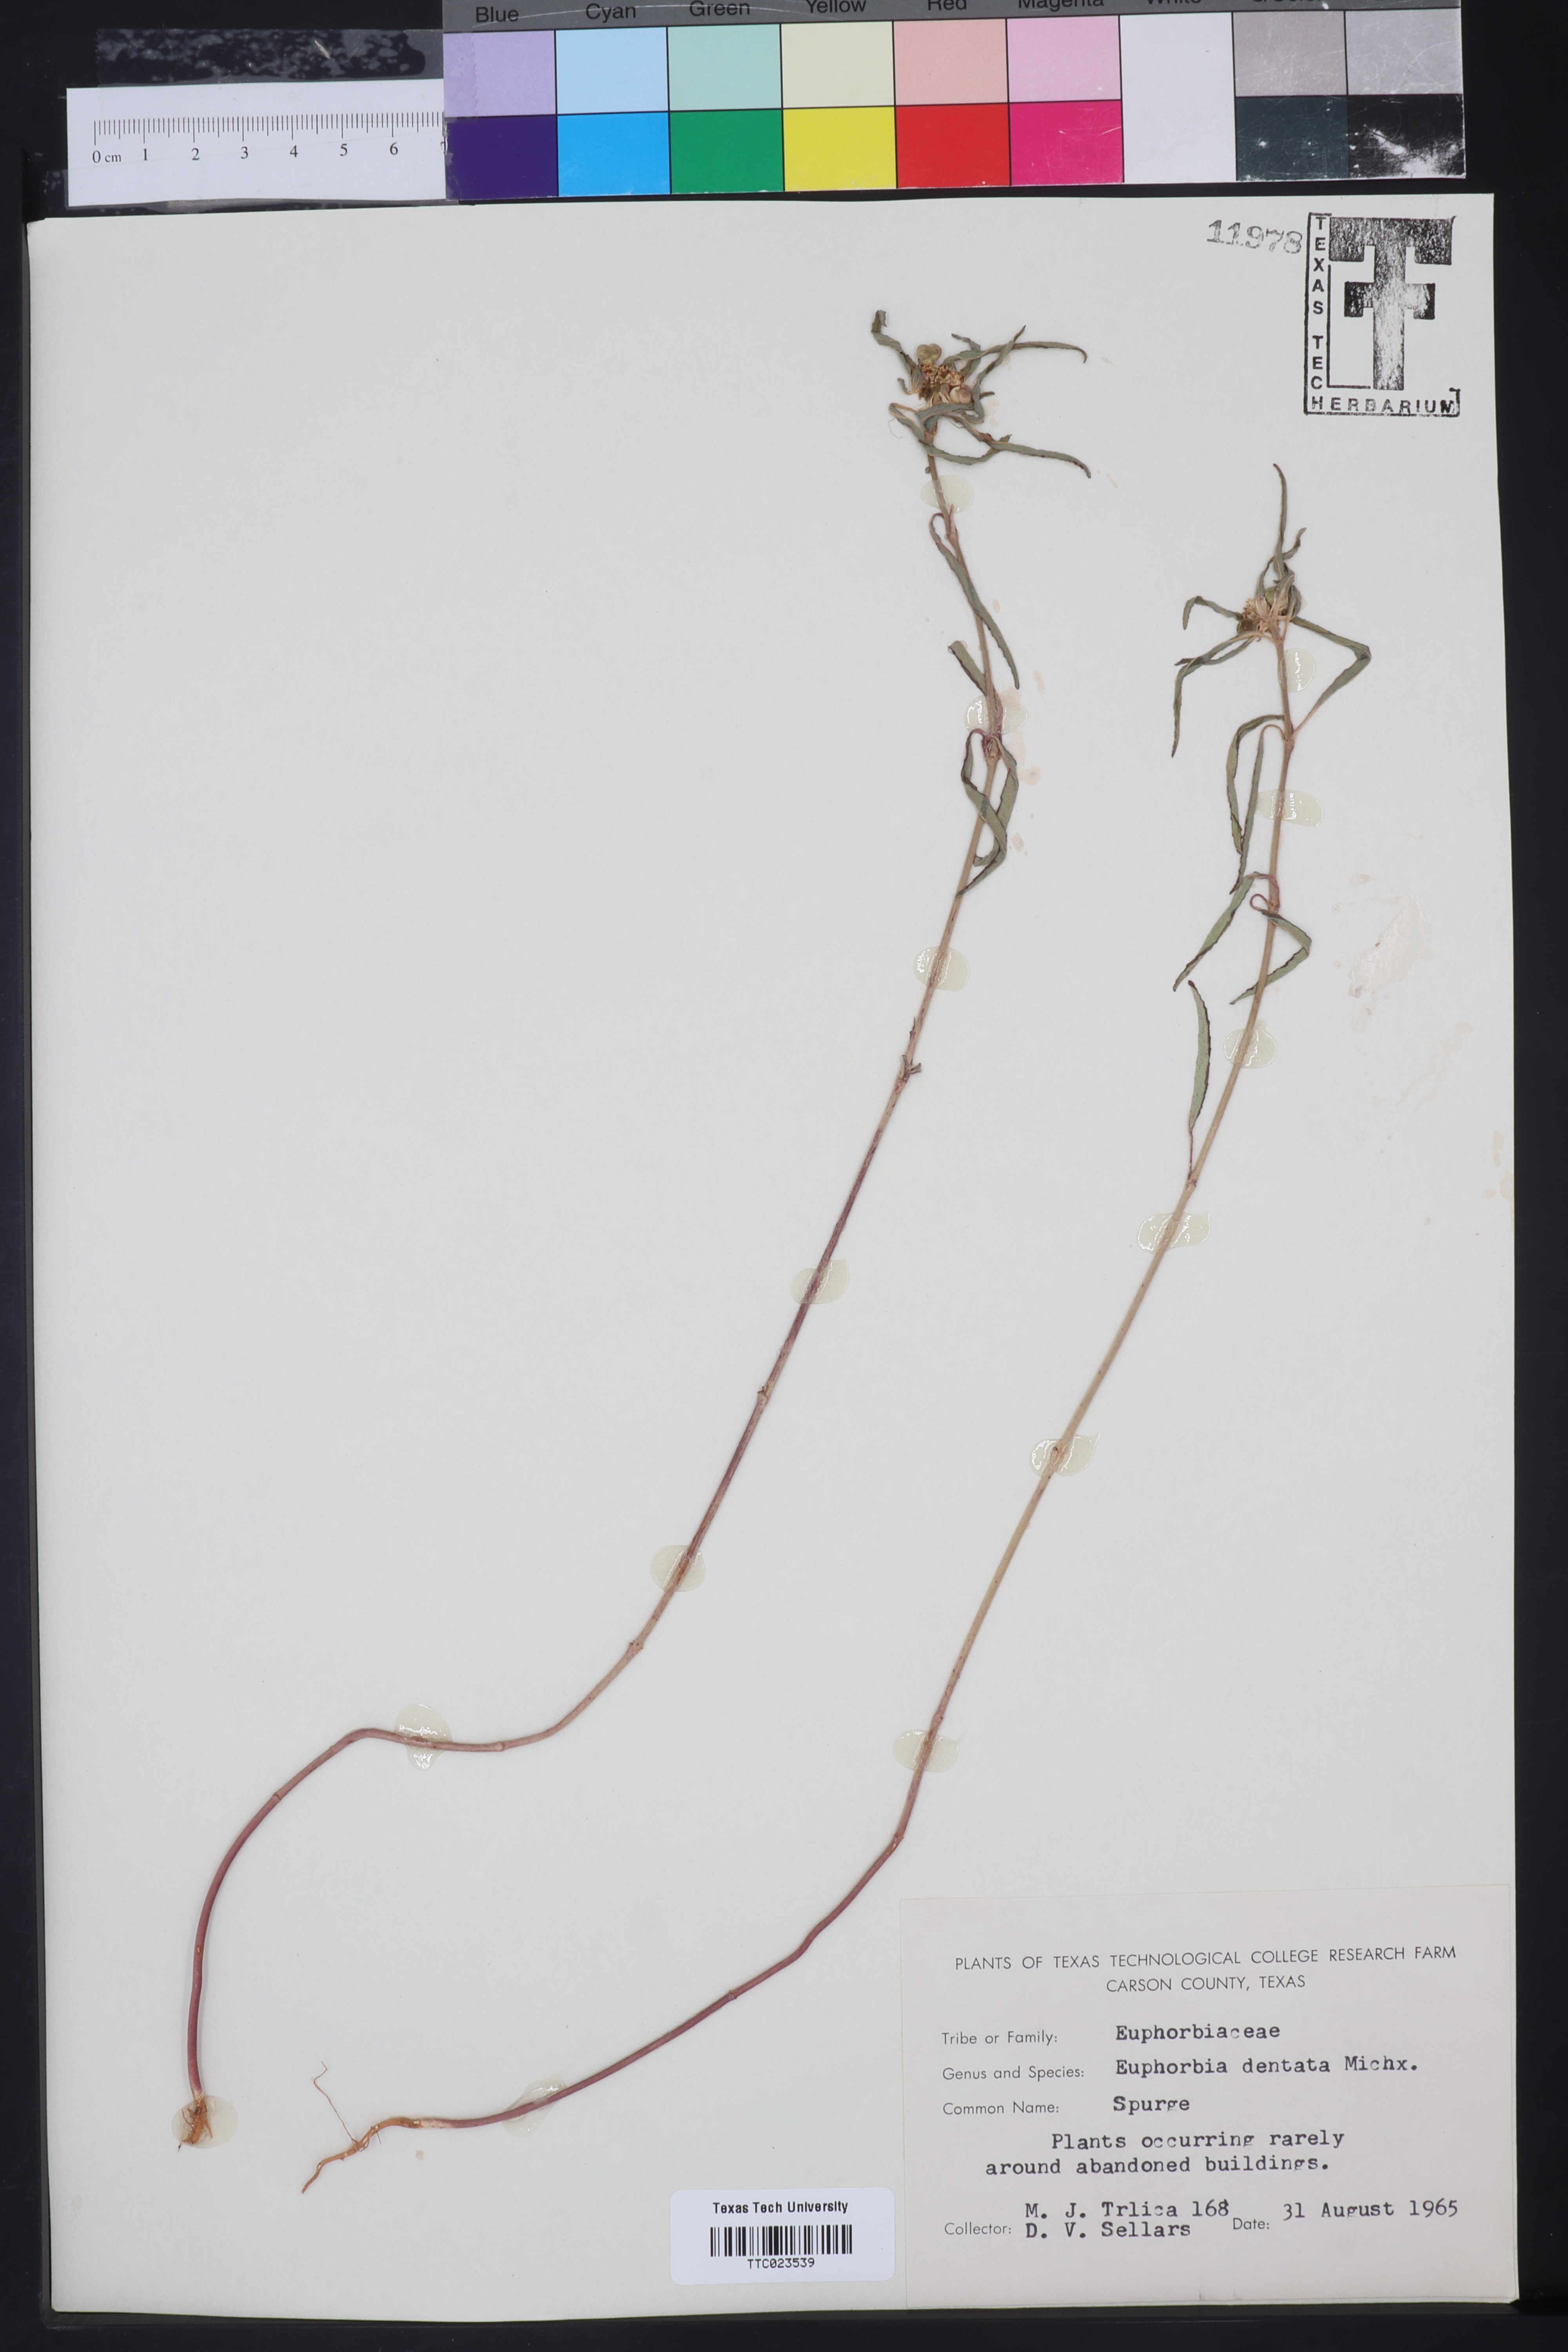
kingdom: Plantae
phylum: Tracheophyta
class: Magnoliopsida
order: Malpighiales
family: Euphorbiaceae
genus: Euphorbia
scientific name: Euphorbia dentata
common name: Dentate spurge
